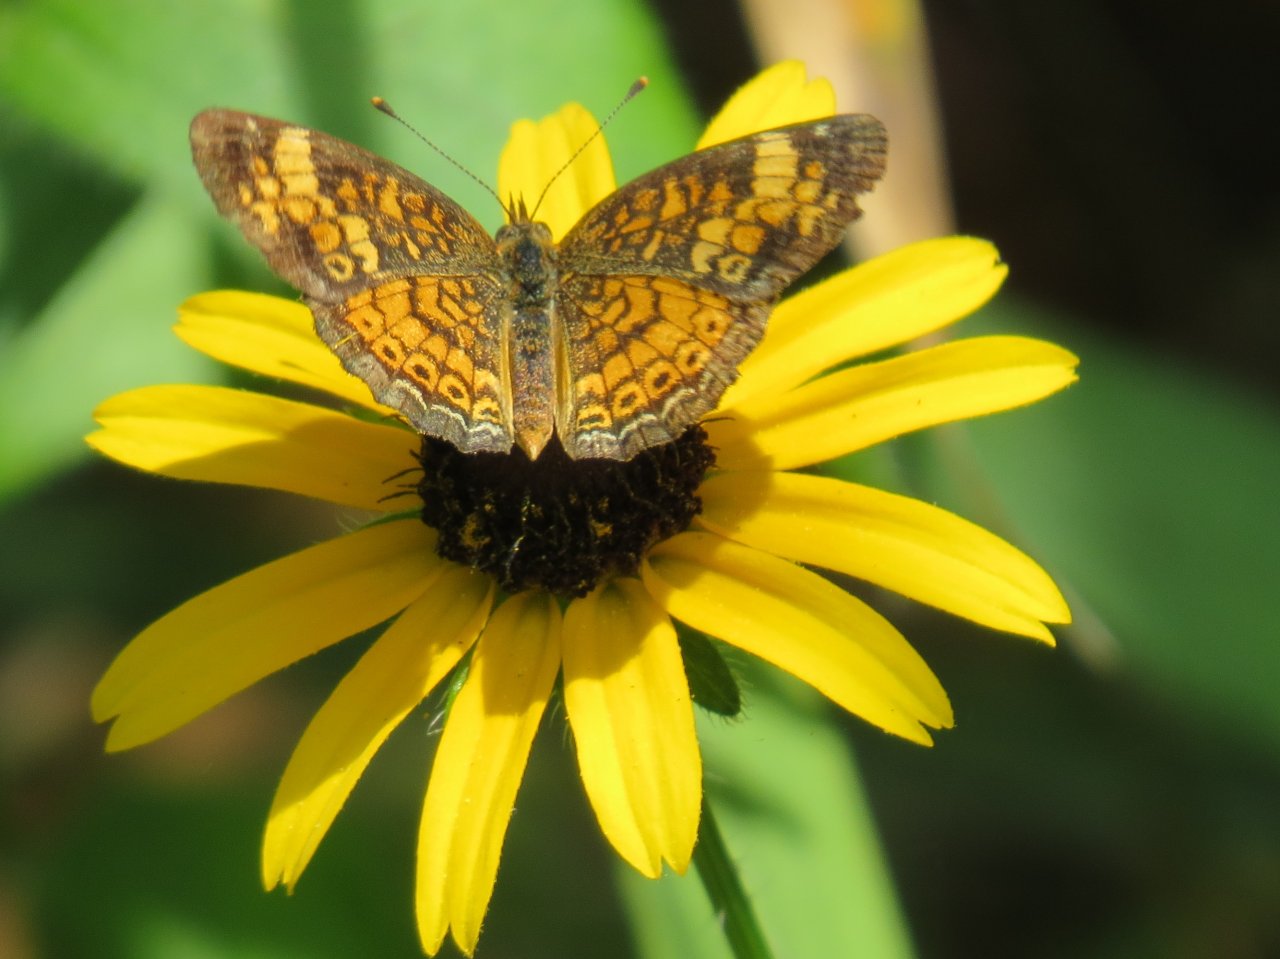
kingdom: Animalia
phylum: Arthropoda
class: Insecta
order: Lepidoptera
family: Nymphalidae
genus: Phyciodes
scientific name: Phyciodes tharos
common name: Pearl Crescent
